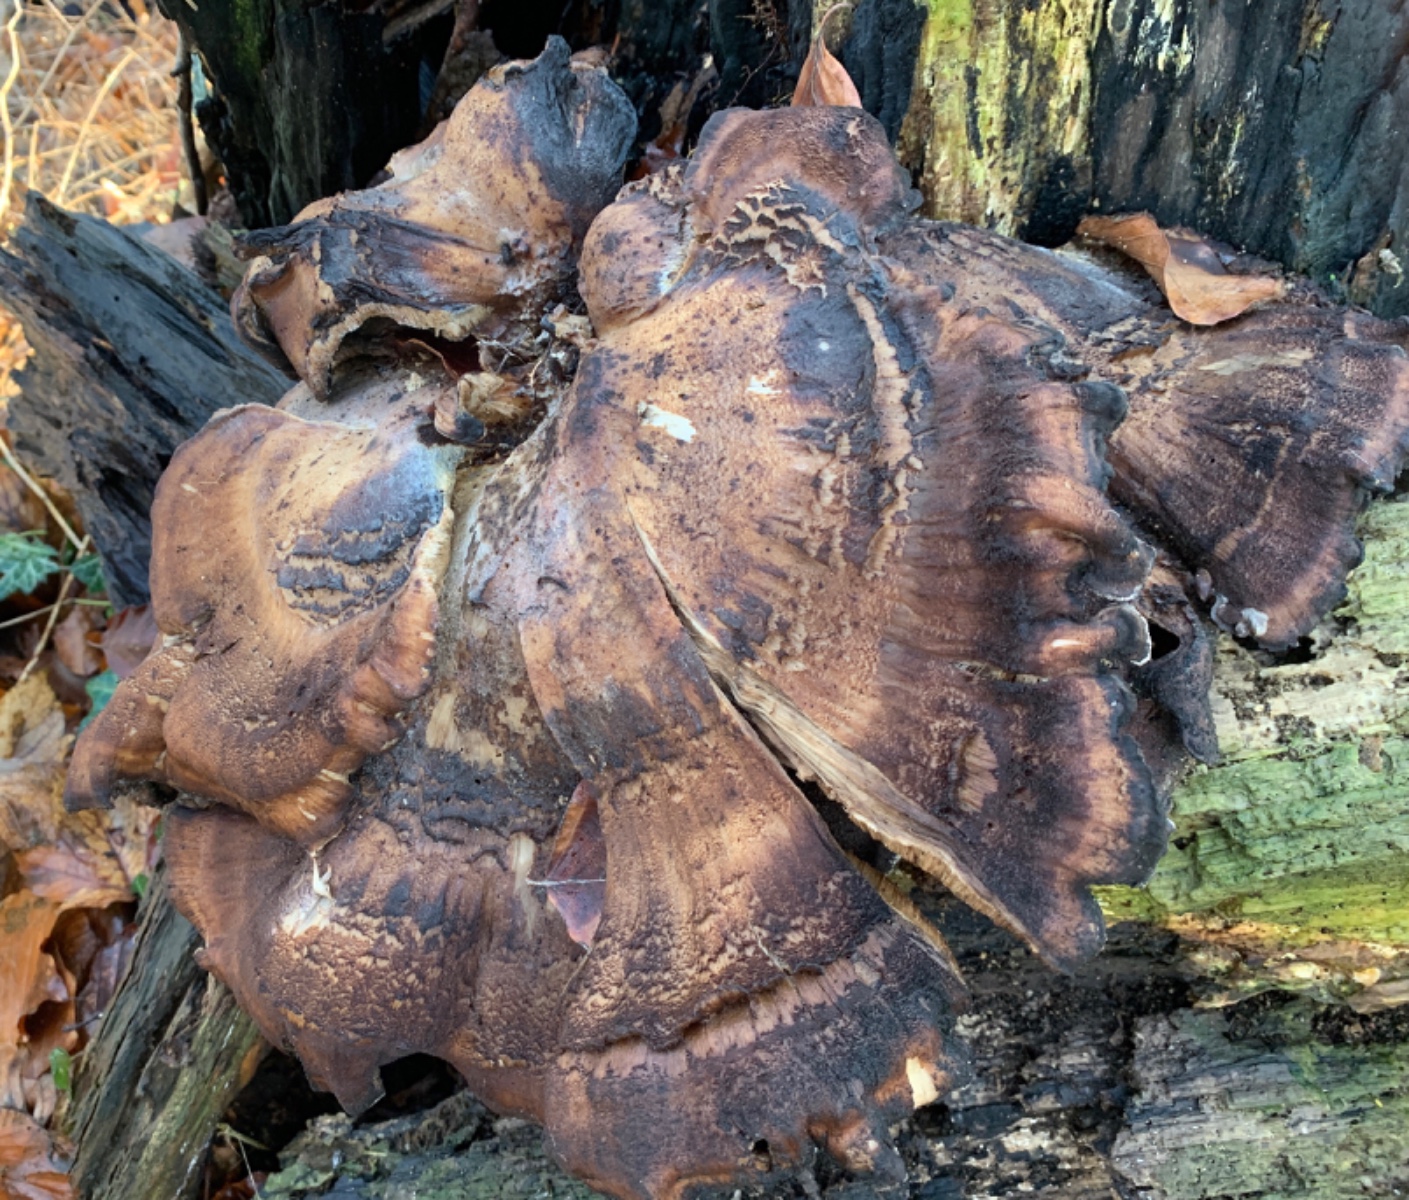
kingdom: Fungi
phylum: Basidiomycota
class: Agaricomycetes
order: Polyporales
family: Meripilaceae
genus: Meripilus
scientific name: Meripilus giganteus
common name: kæmpeporesvamp
